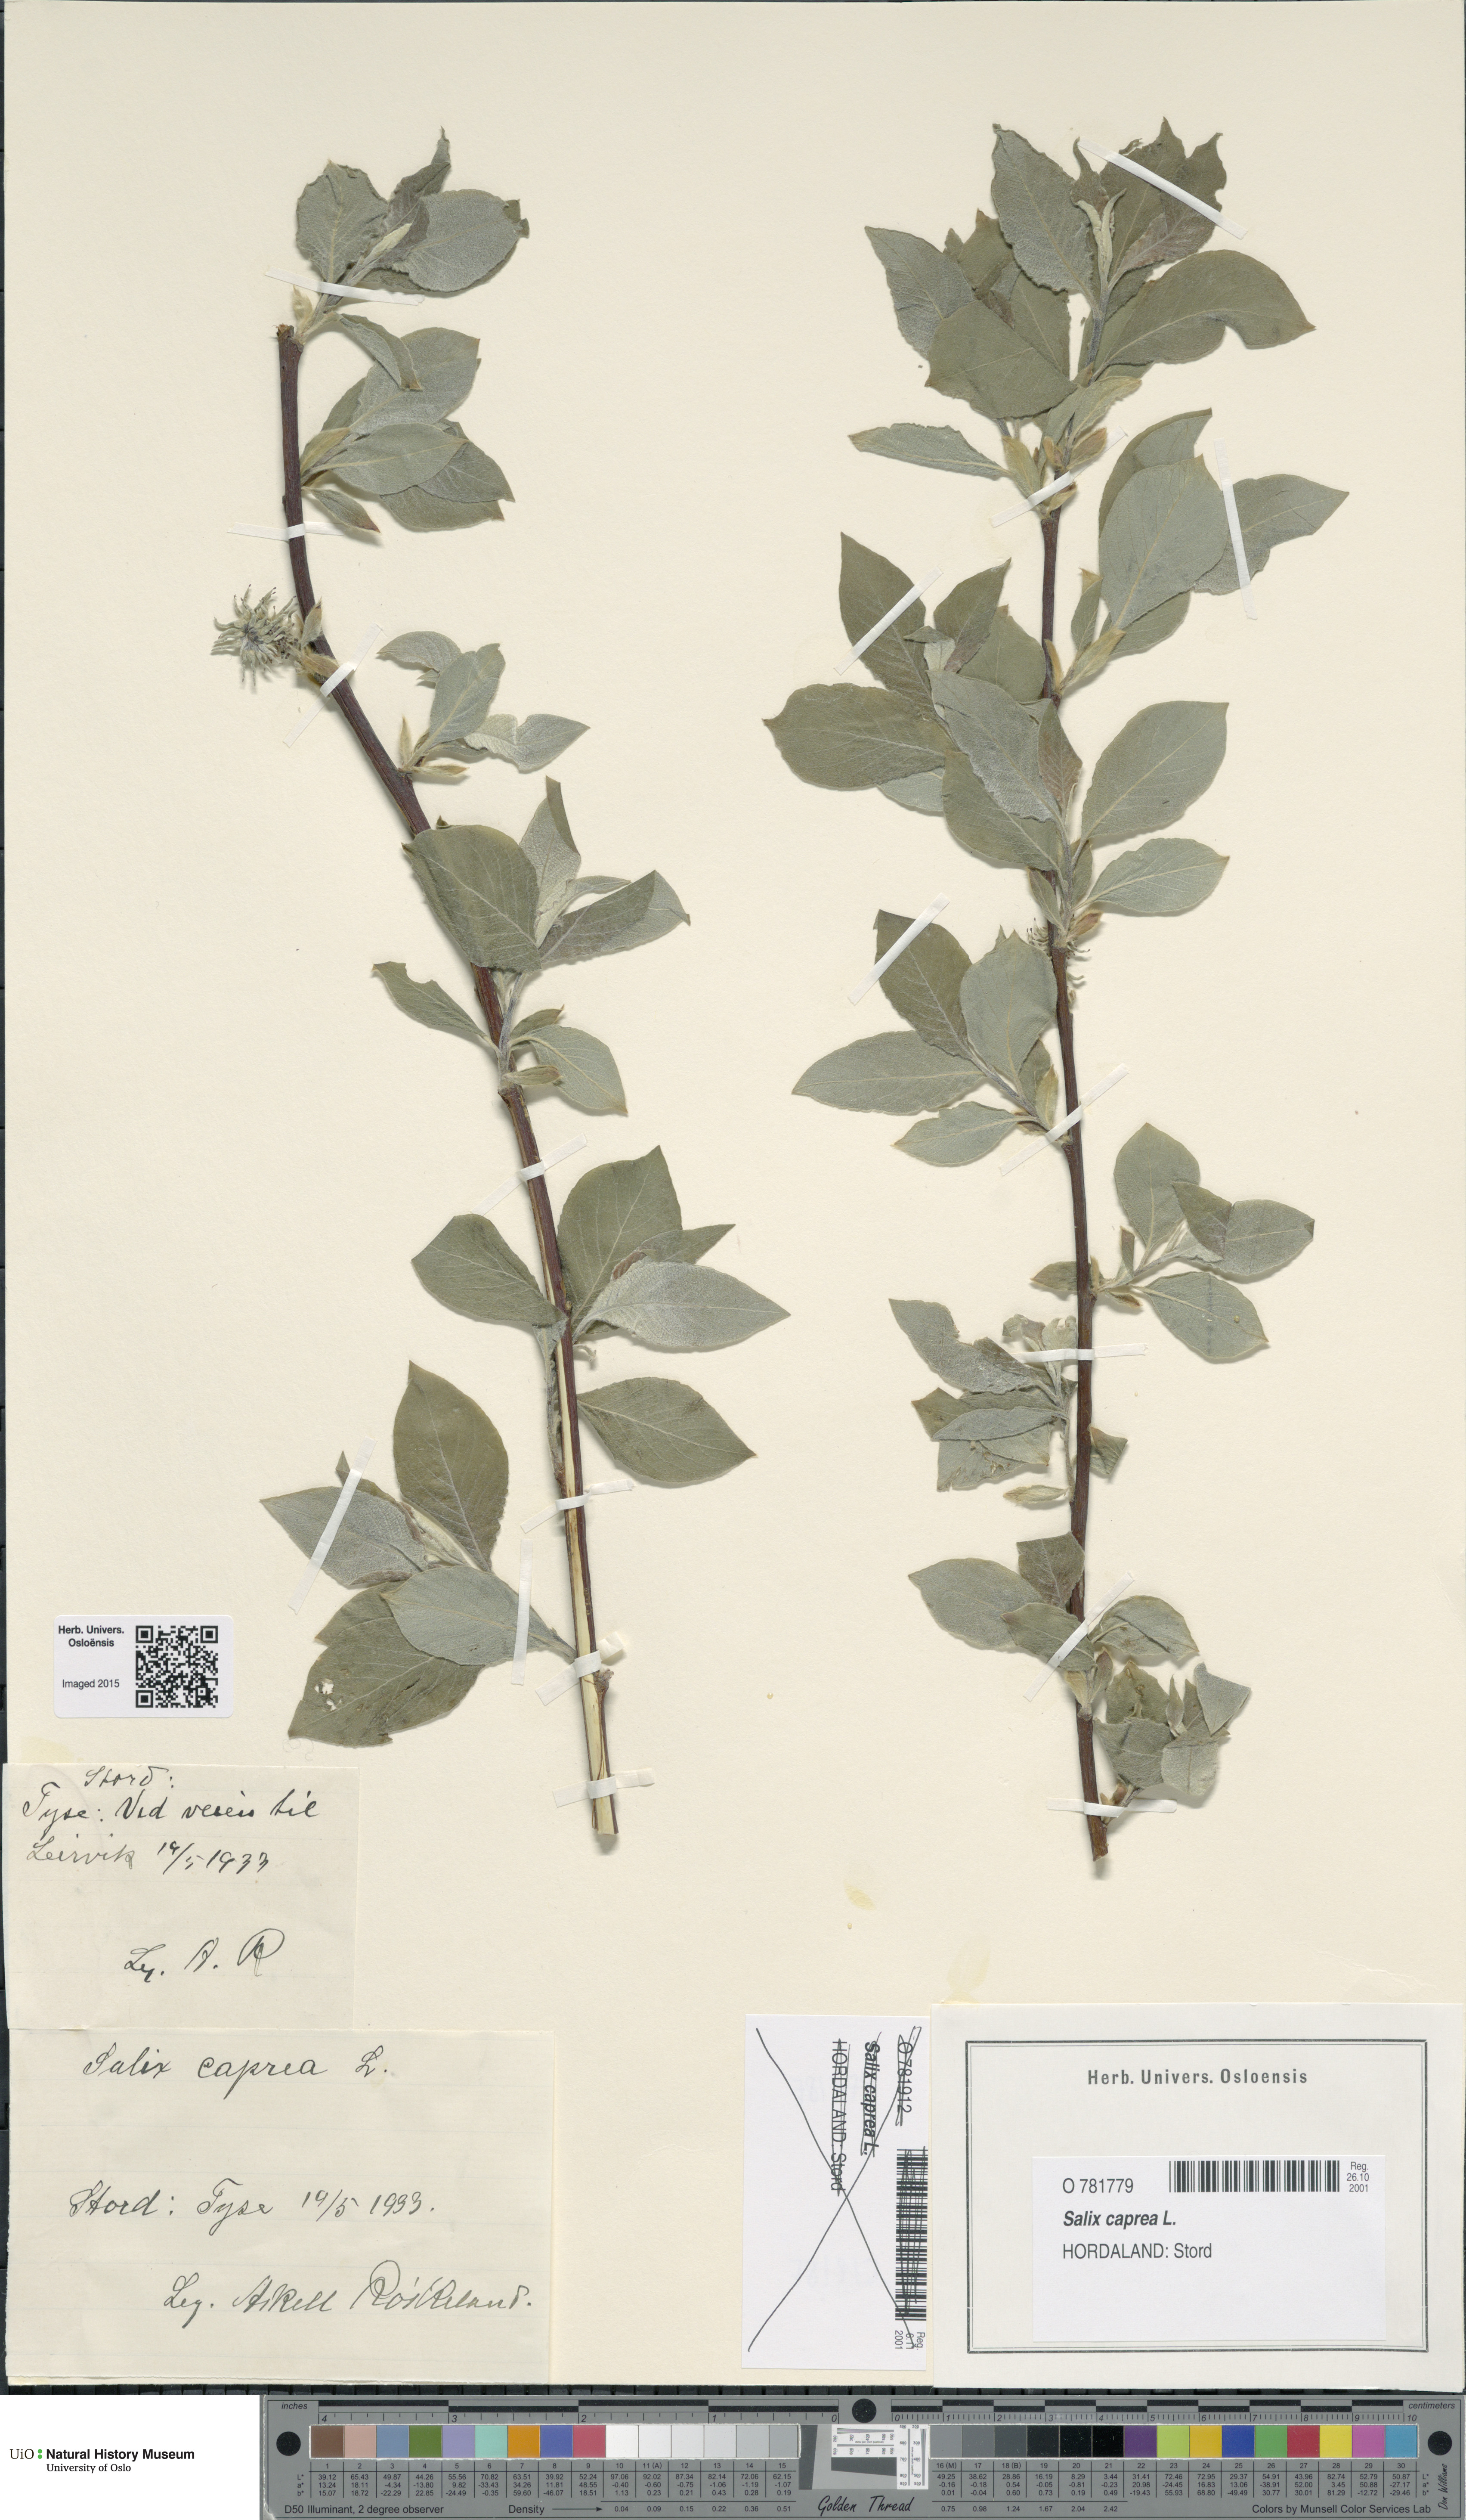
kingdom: Plantae
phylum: Tracheophyta
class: Magnoliopsida
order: Malpighiales
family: Salicaceae
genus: Salix
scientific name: Salix caprea
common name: Goat willow
